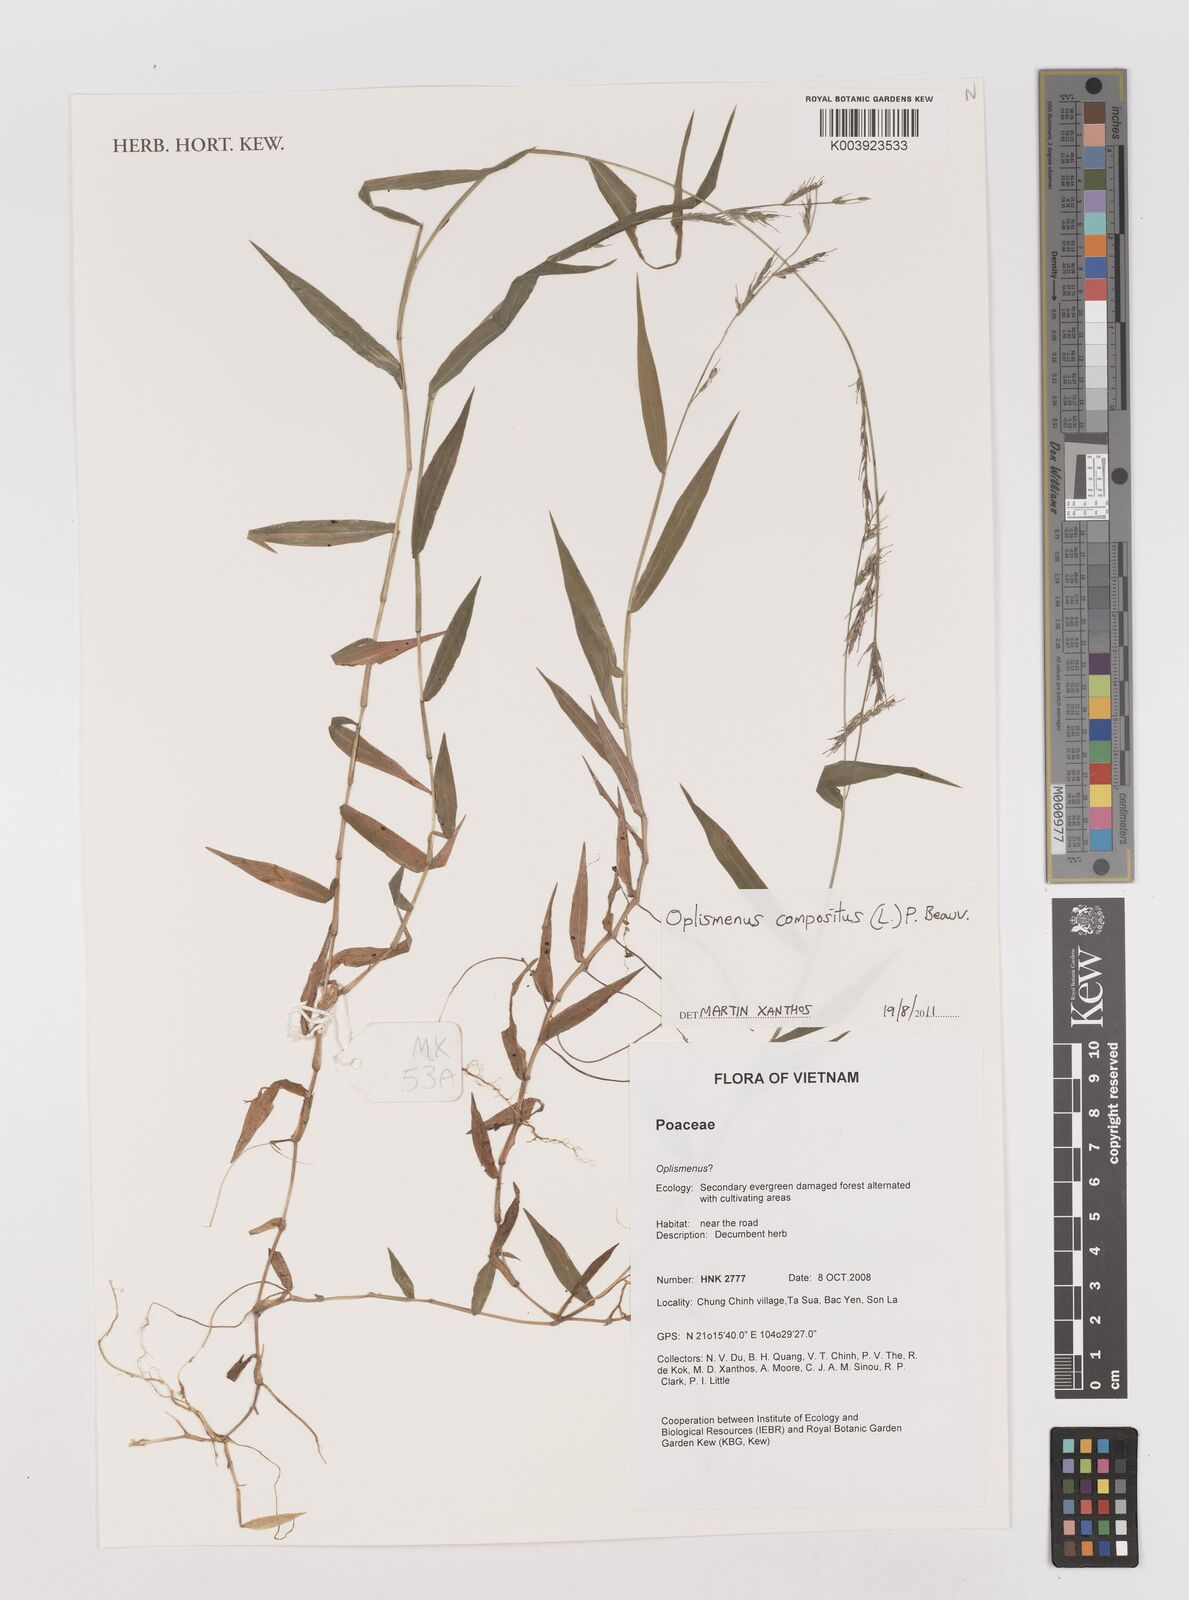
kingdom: Plantae
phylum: Tracheophyta
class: Liliopsida
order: Poales
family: Poaceae
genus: Oplismenus
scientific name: Oplismenus compositus
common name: Running mountain grass
